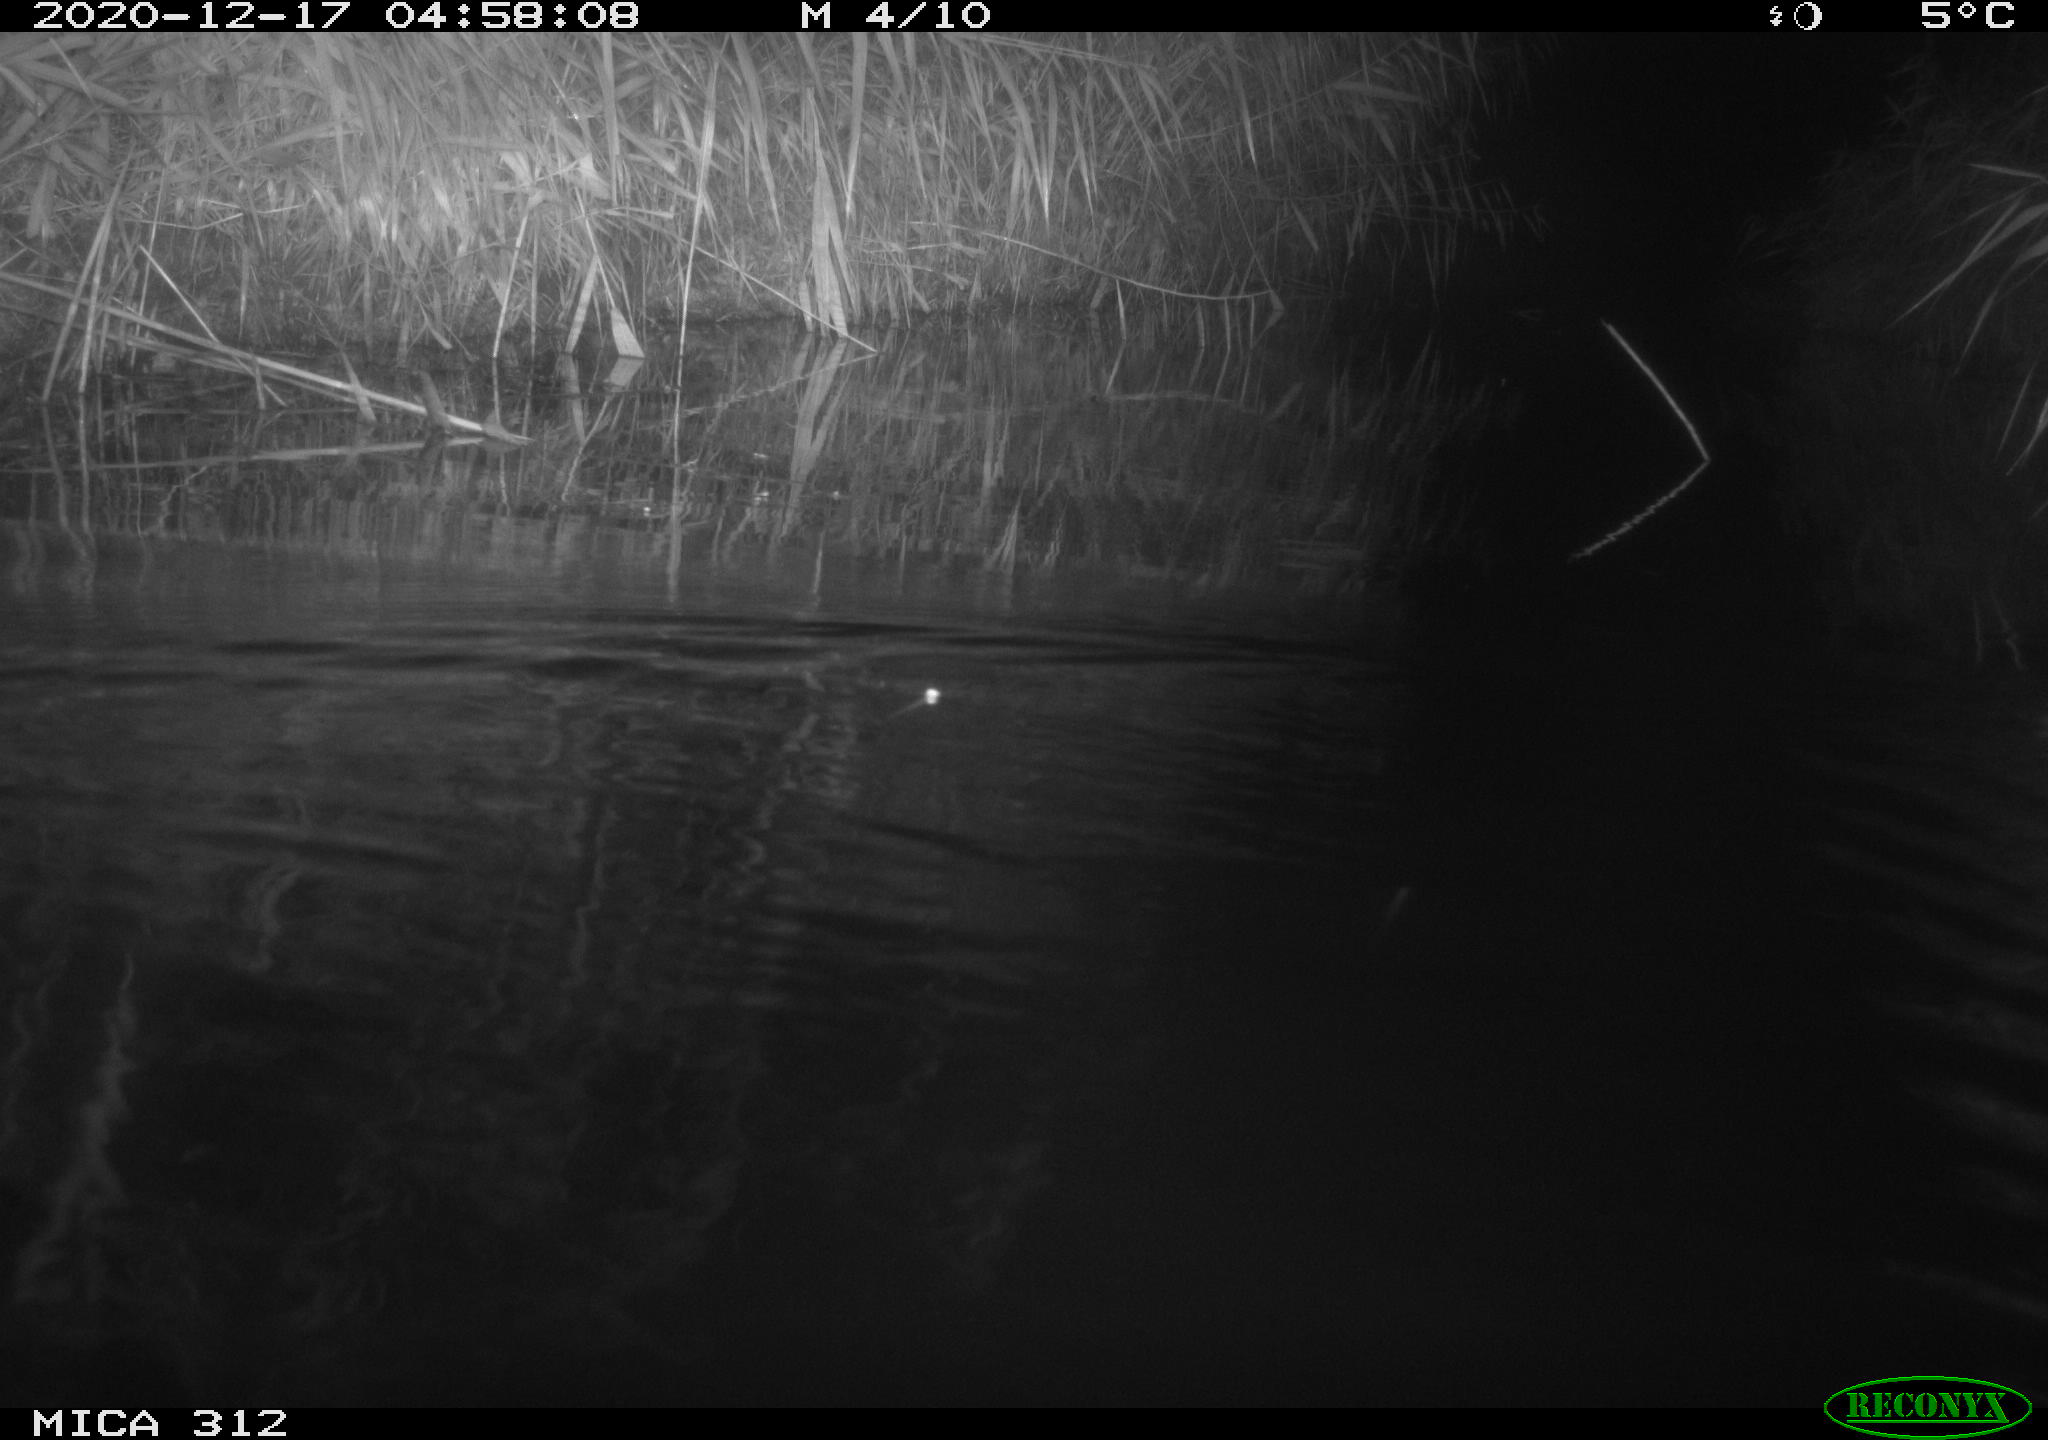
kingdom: Animalia
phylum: Chordata
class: Mammalia
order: Rodentia
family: Muridae
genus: Rattus
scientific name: Rattus norvegicus
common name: Brown rat
